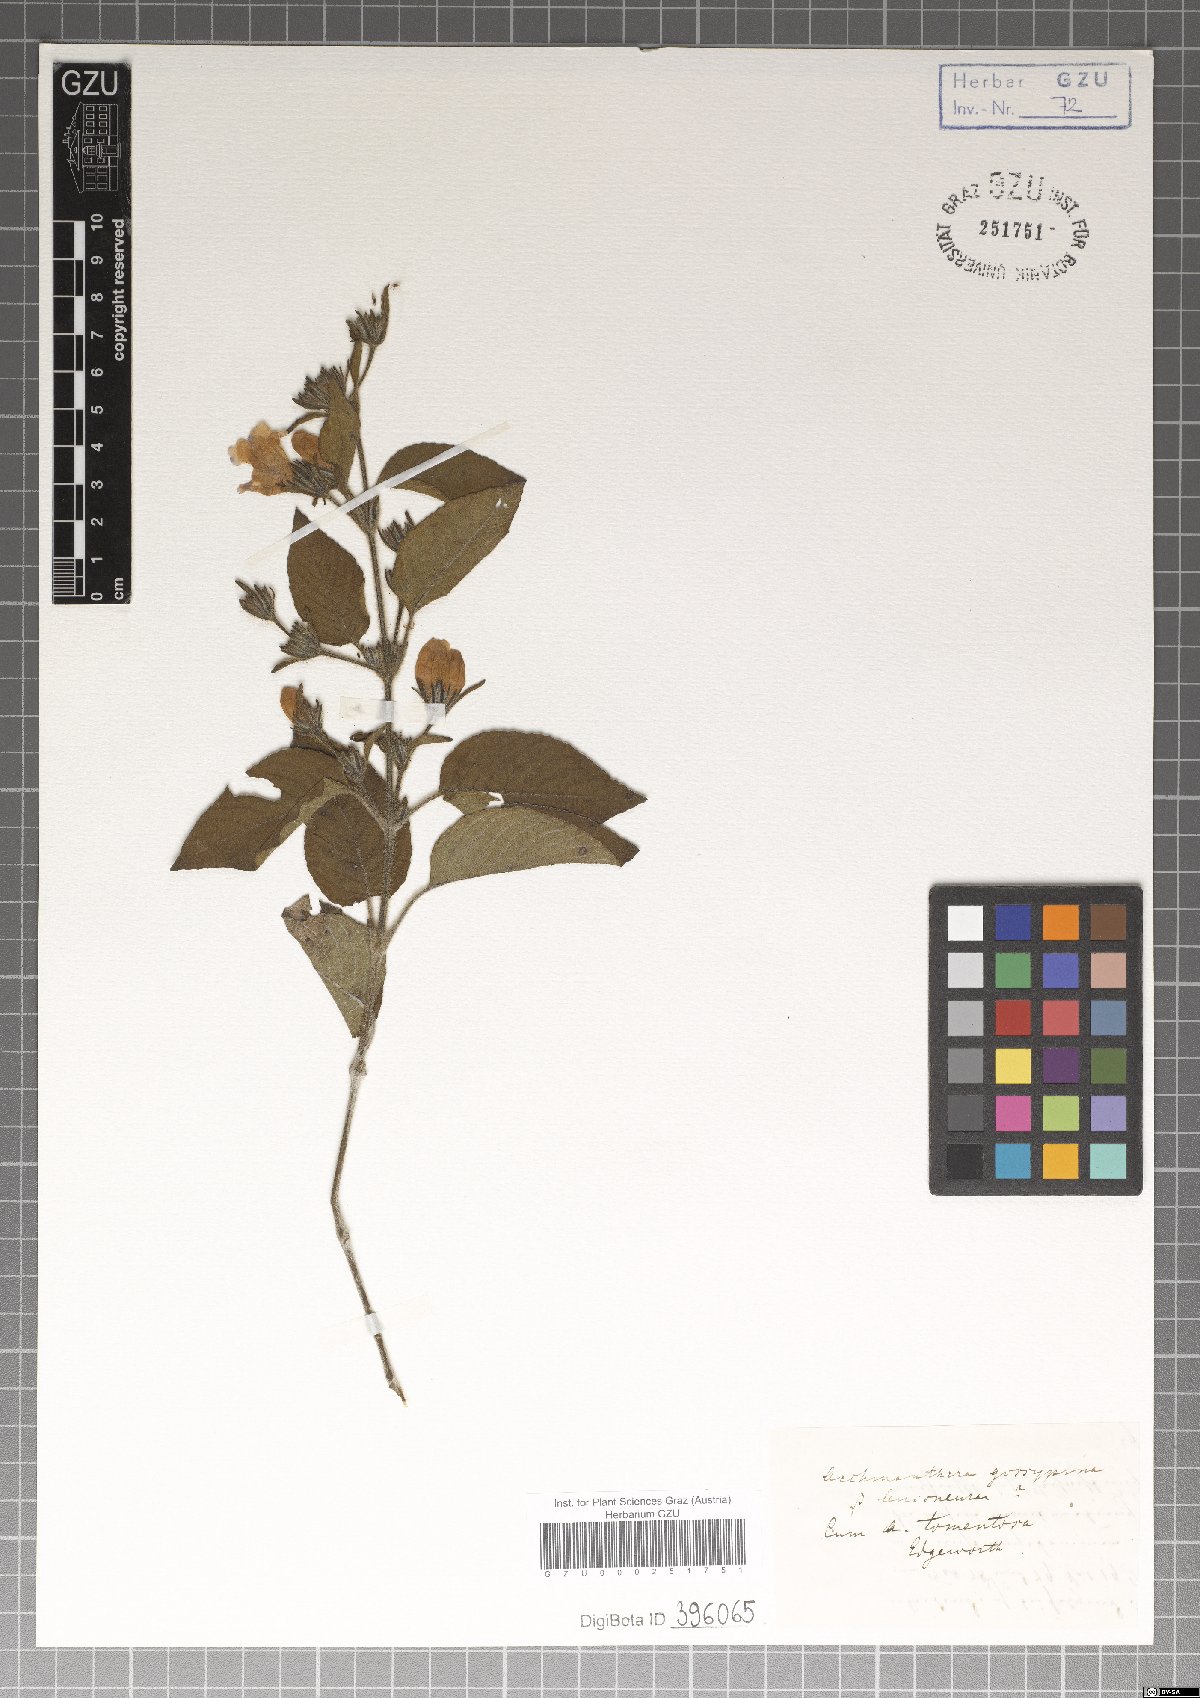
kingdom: Plantae
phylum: Tracheophyta
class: Magnoliopsida
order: Lamiales
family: Acanthaceae
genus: Strobilanthes
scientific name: Strobilanthes tomentosa
